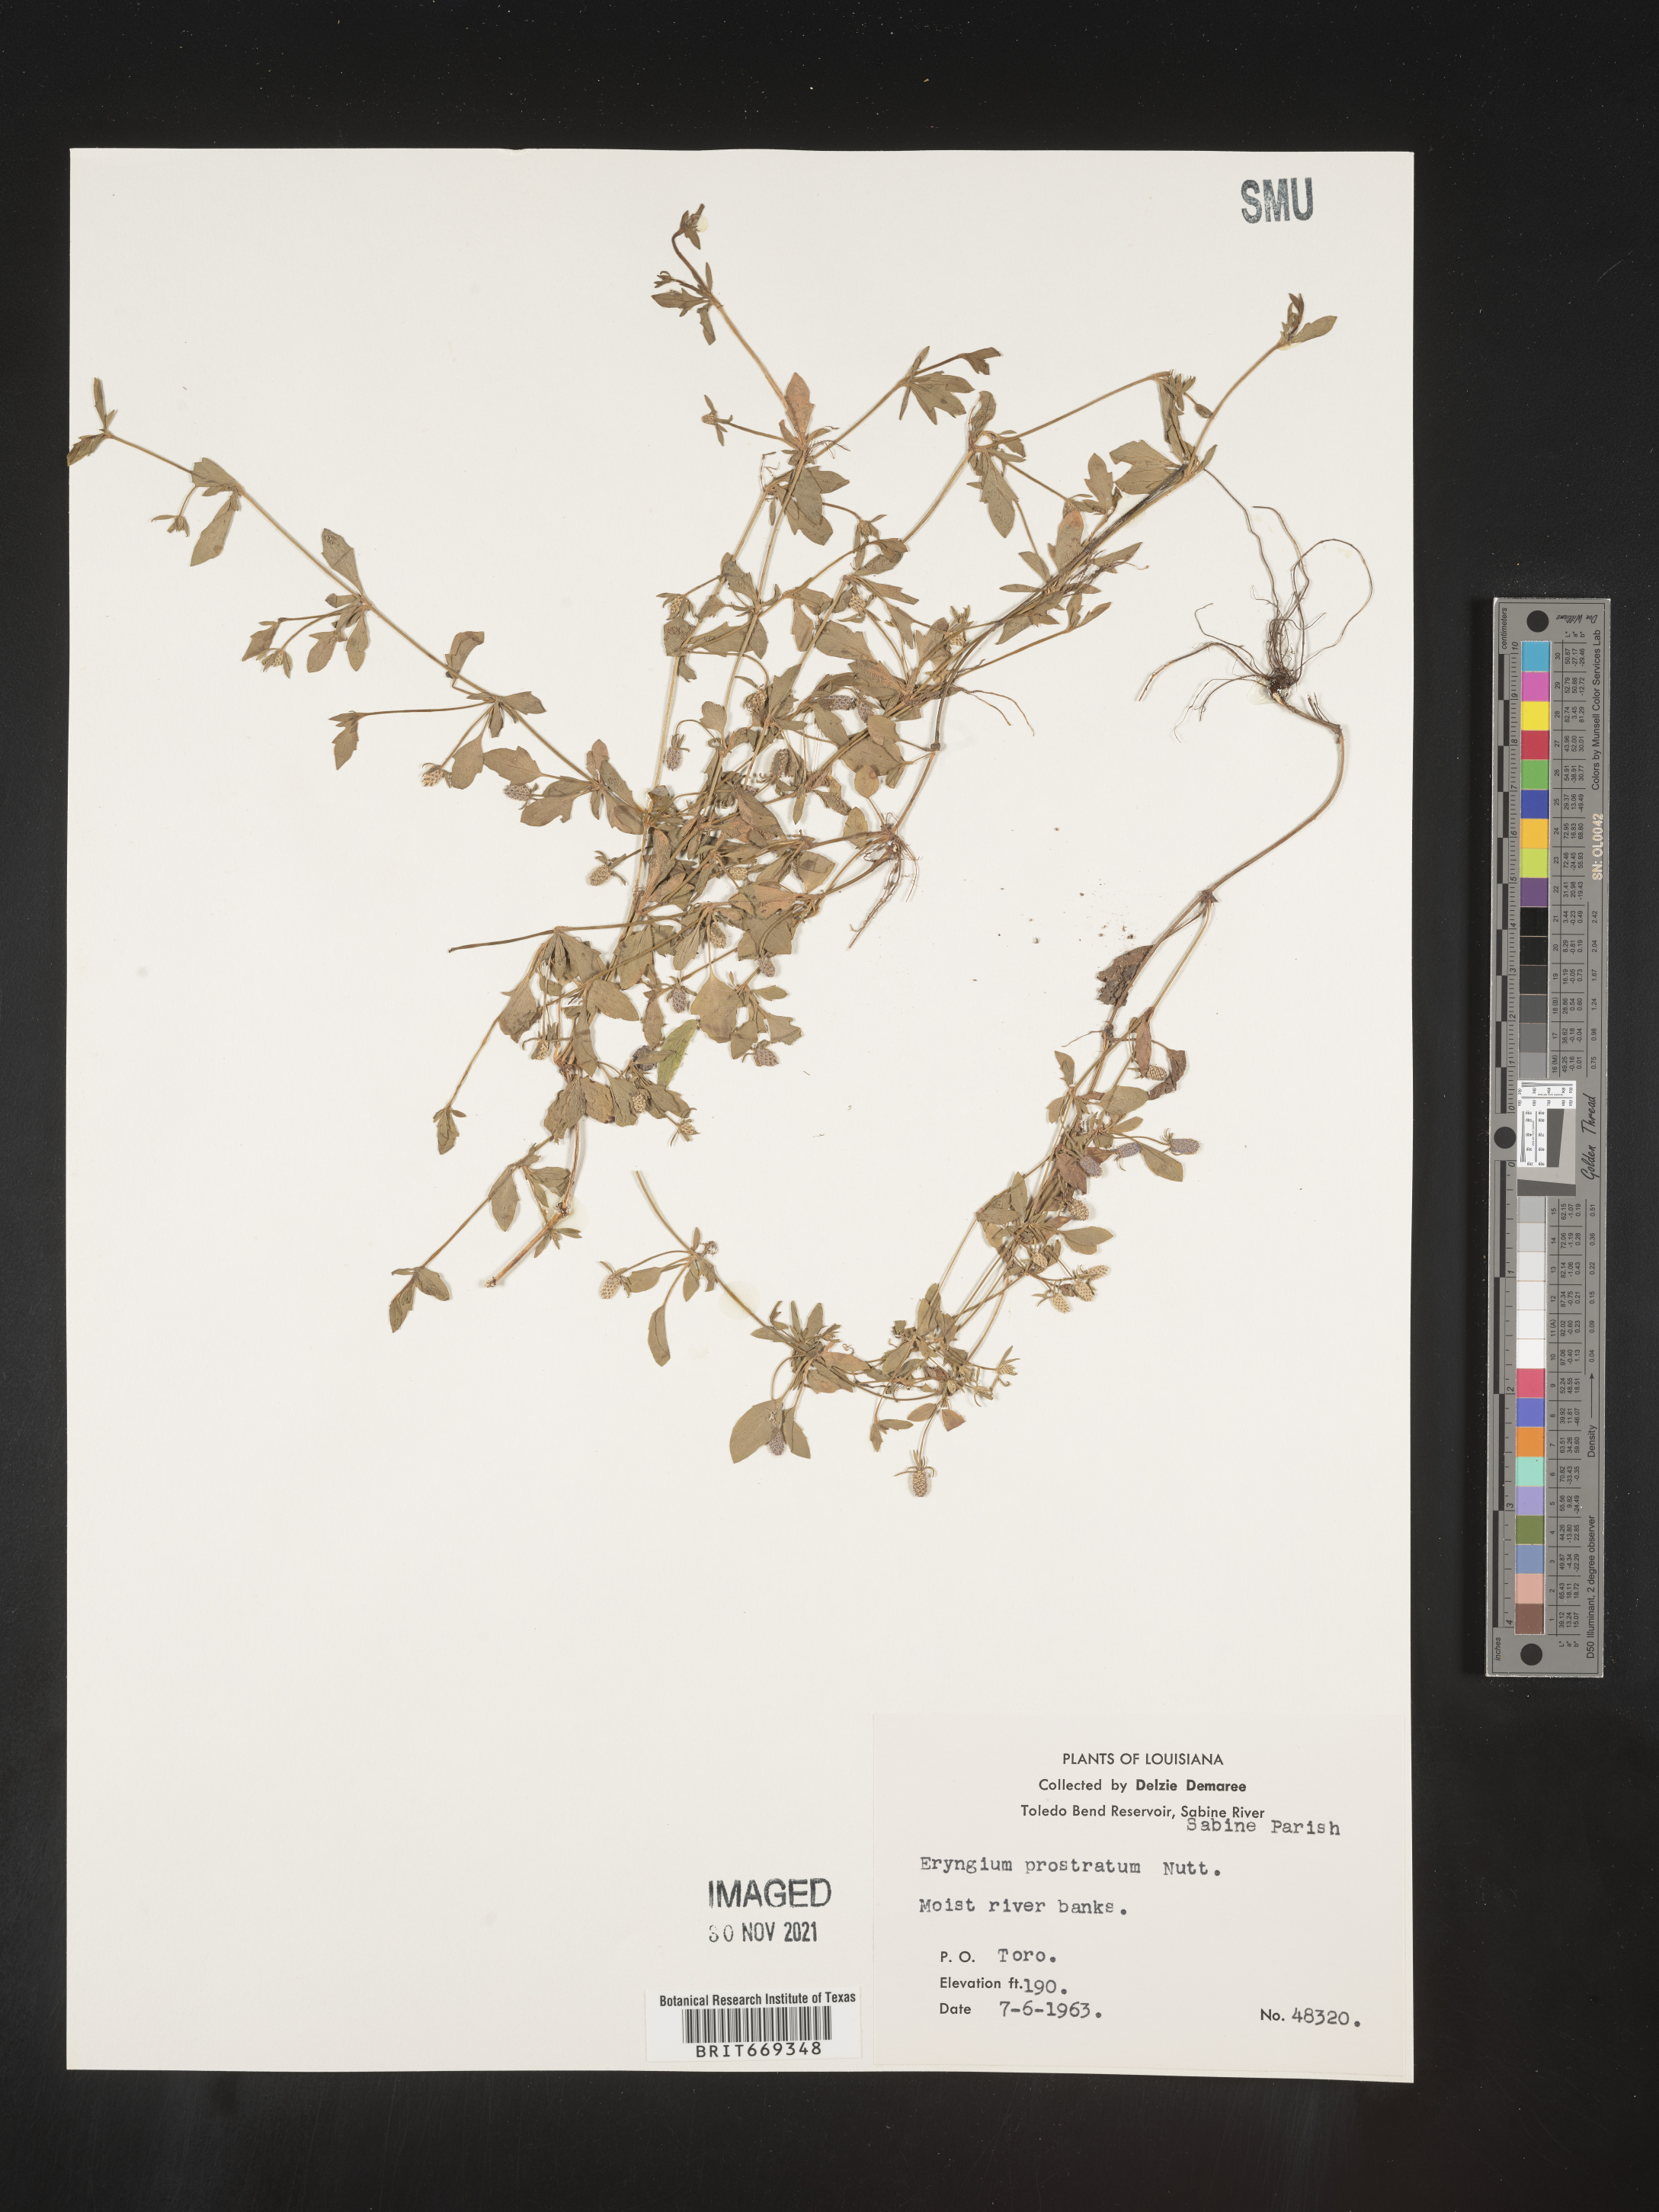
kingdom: Plantae
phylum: Tracheophyta
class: Magnoliopsida
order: Apiales
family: Apiaceae
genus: Eryngium
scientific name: Eryngium prostratum
